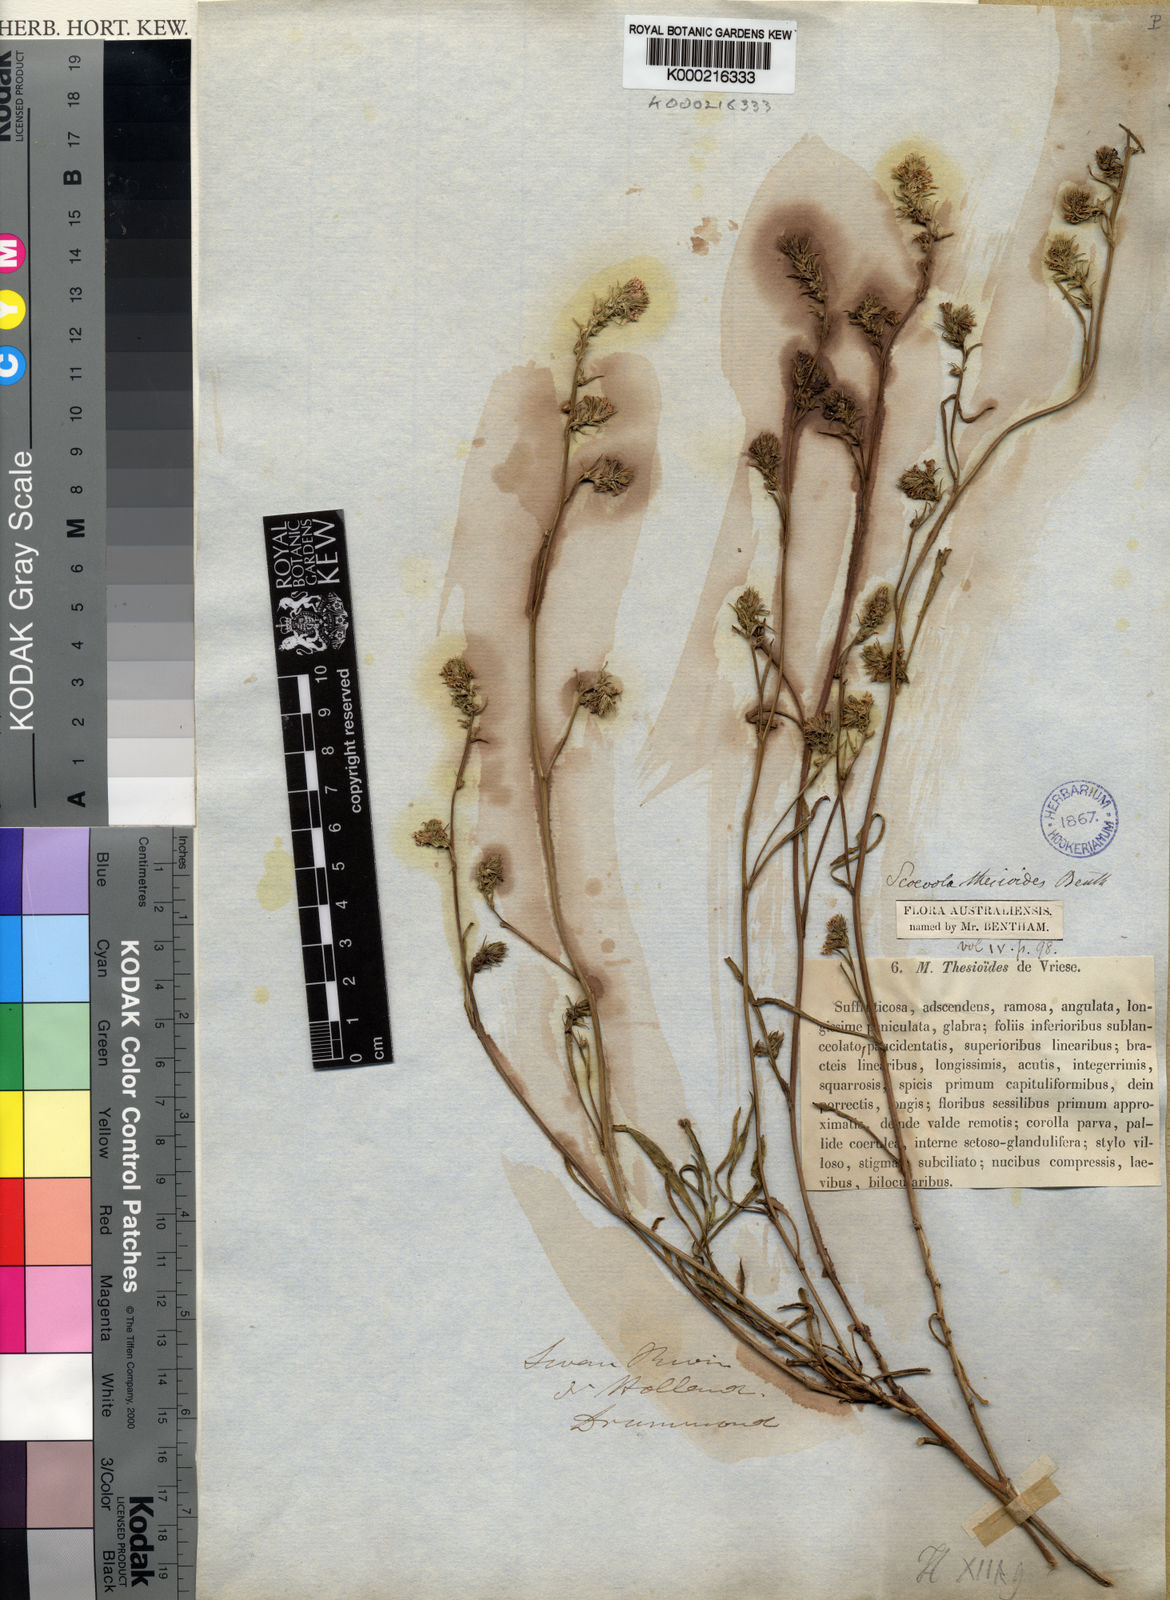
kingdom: Plantae
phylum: Tracheophyta
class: Magnoliopsida
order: Asterales
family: Goodeniaceae
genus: Scaevola
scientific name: Scaevola thesioides
